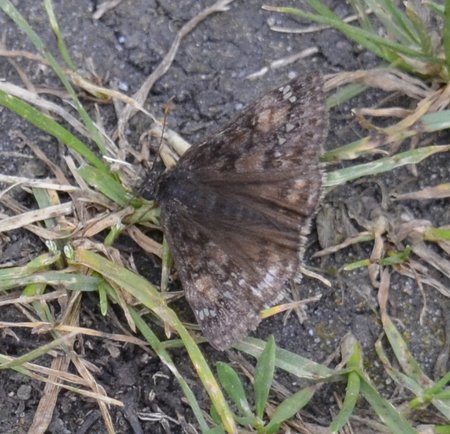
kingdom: Animalia
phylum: Arthropoda
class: Insecta
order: Lepidoptera
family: Hesperiidae
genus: Gesta
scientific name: Gesta
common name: Juvenal's Duskywing
